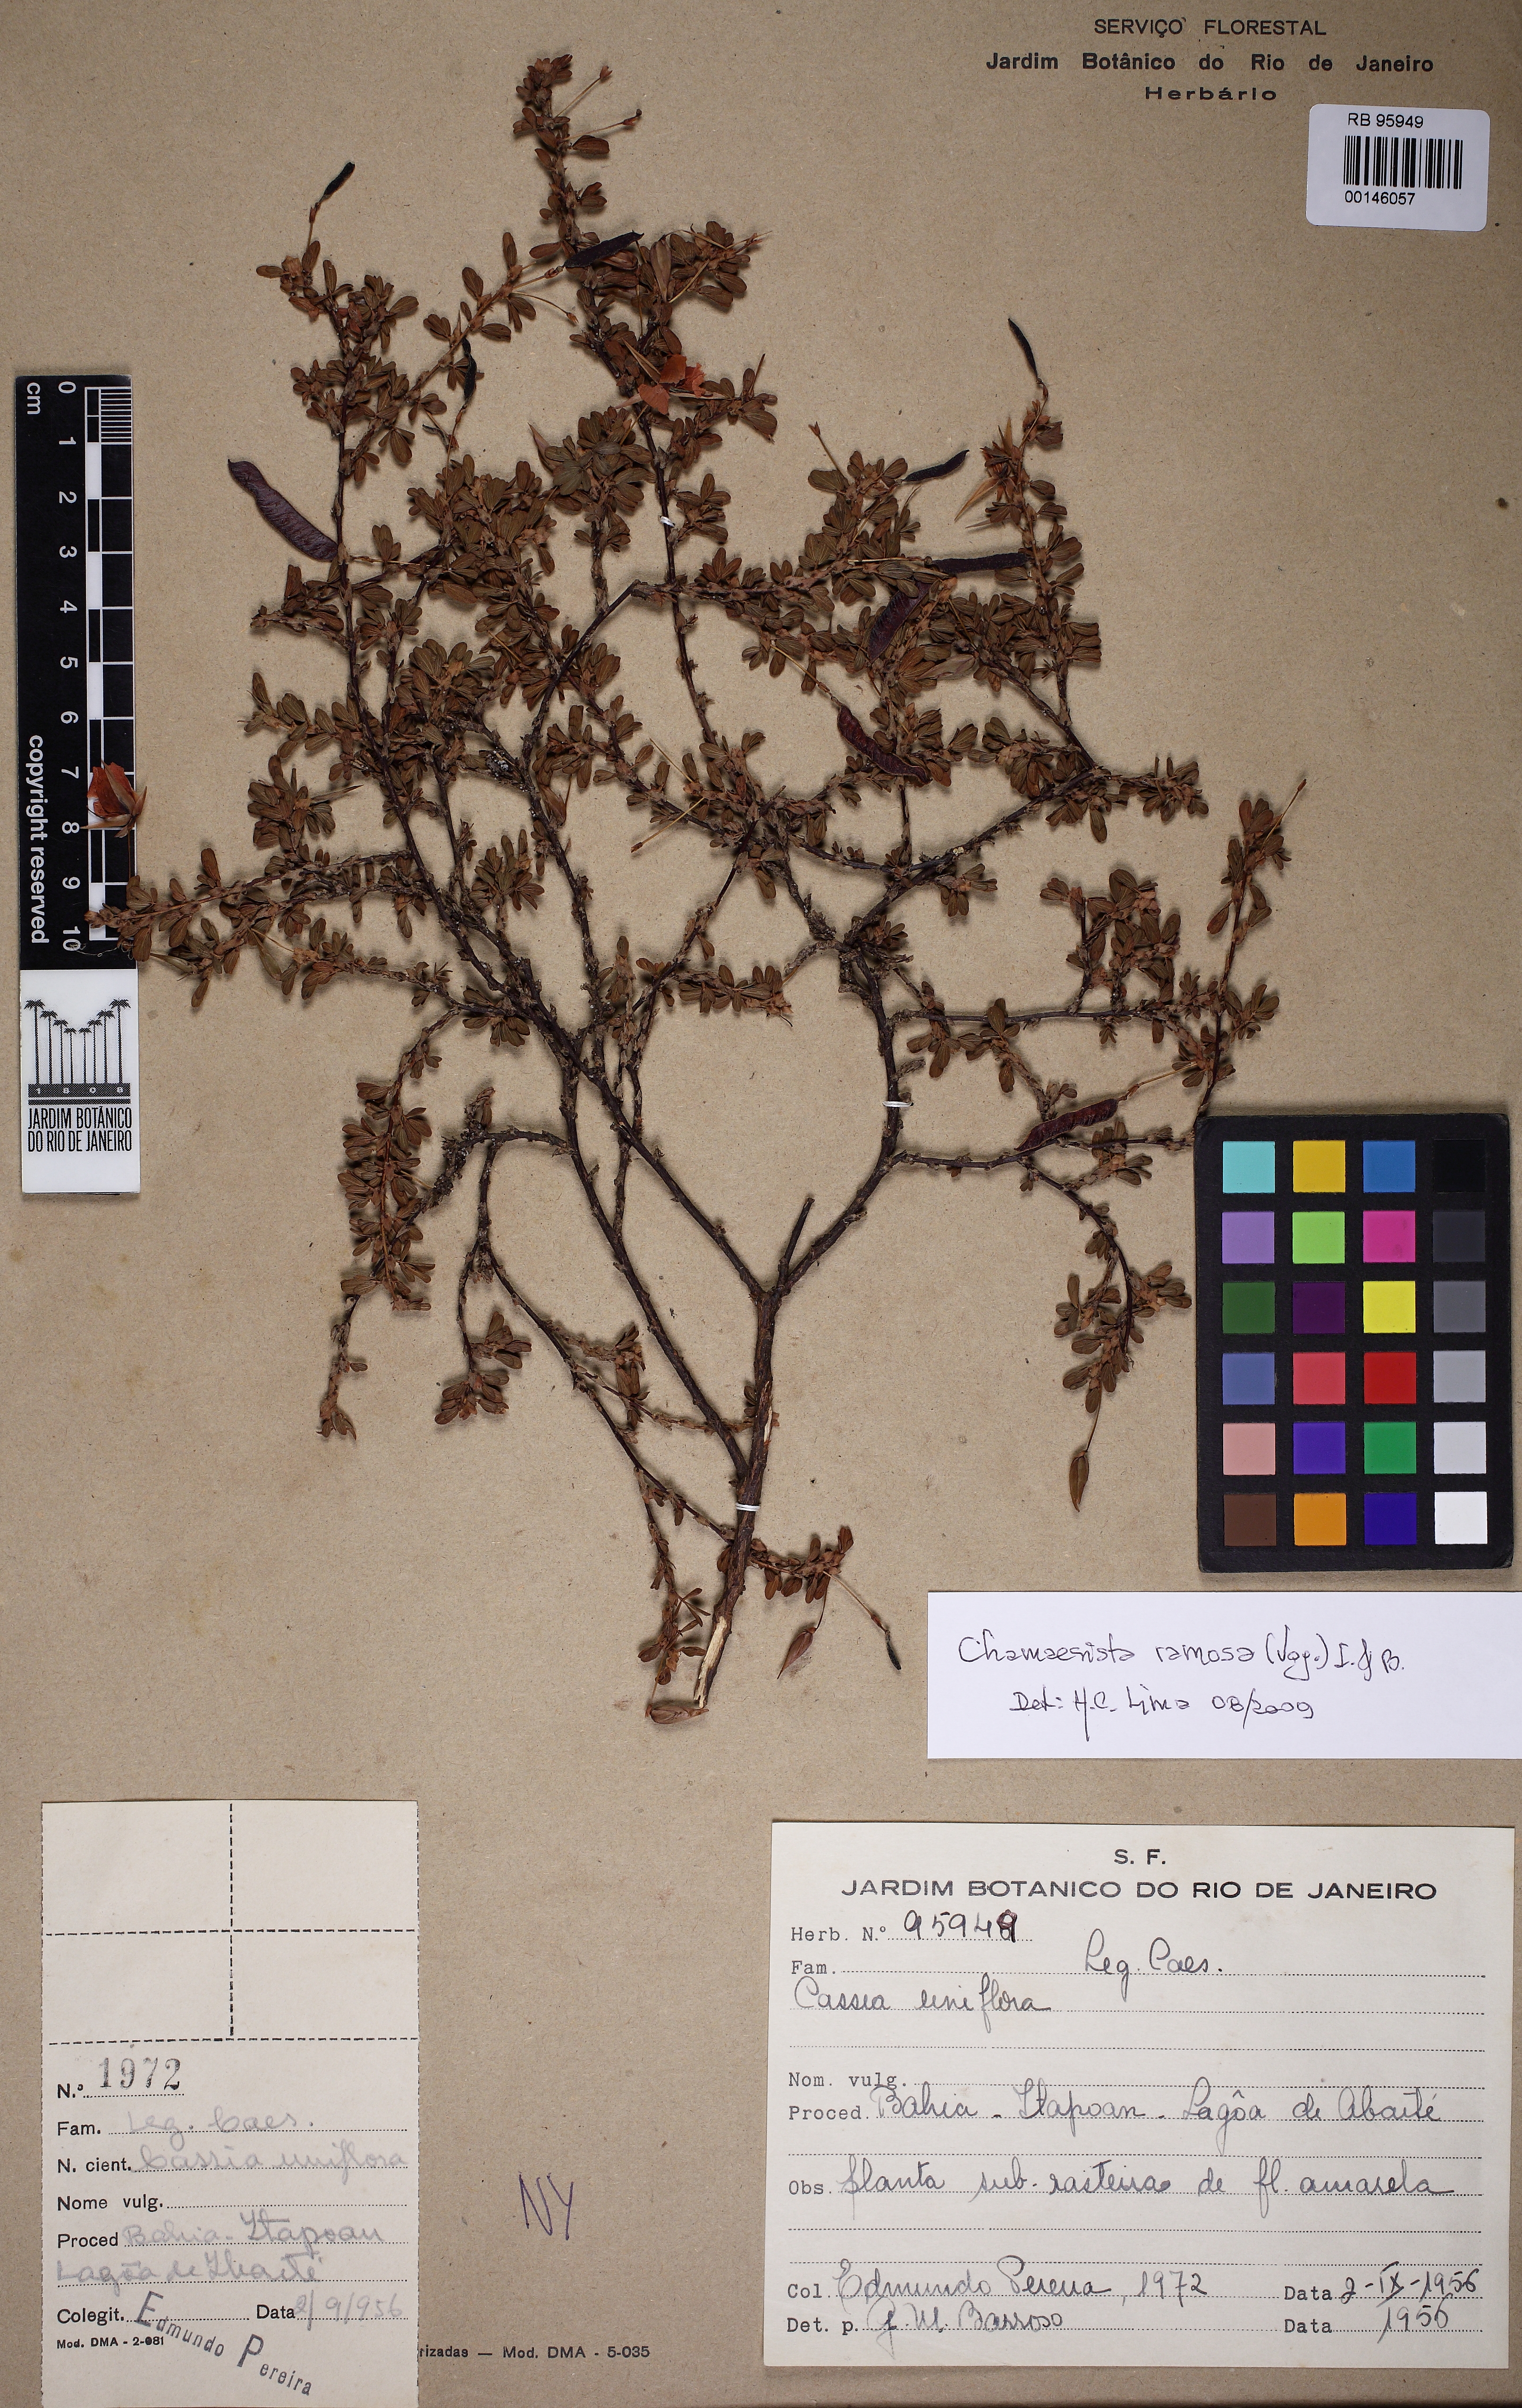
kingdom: Plantae
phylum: Tracheophyta
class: Magnoliopsida
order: Fabales
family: Fabaceae
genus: Senna
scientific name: Senna uniflora
